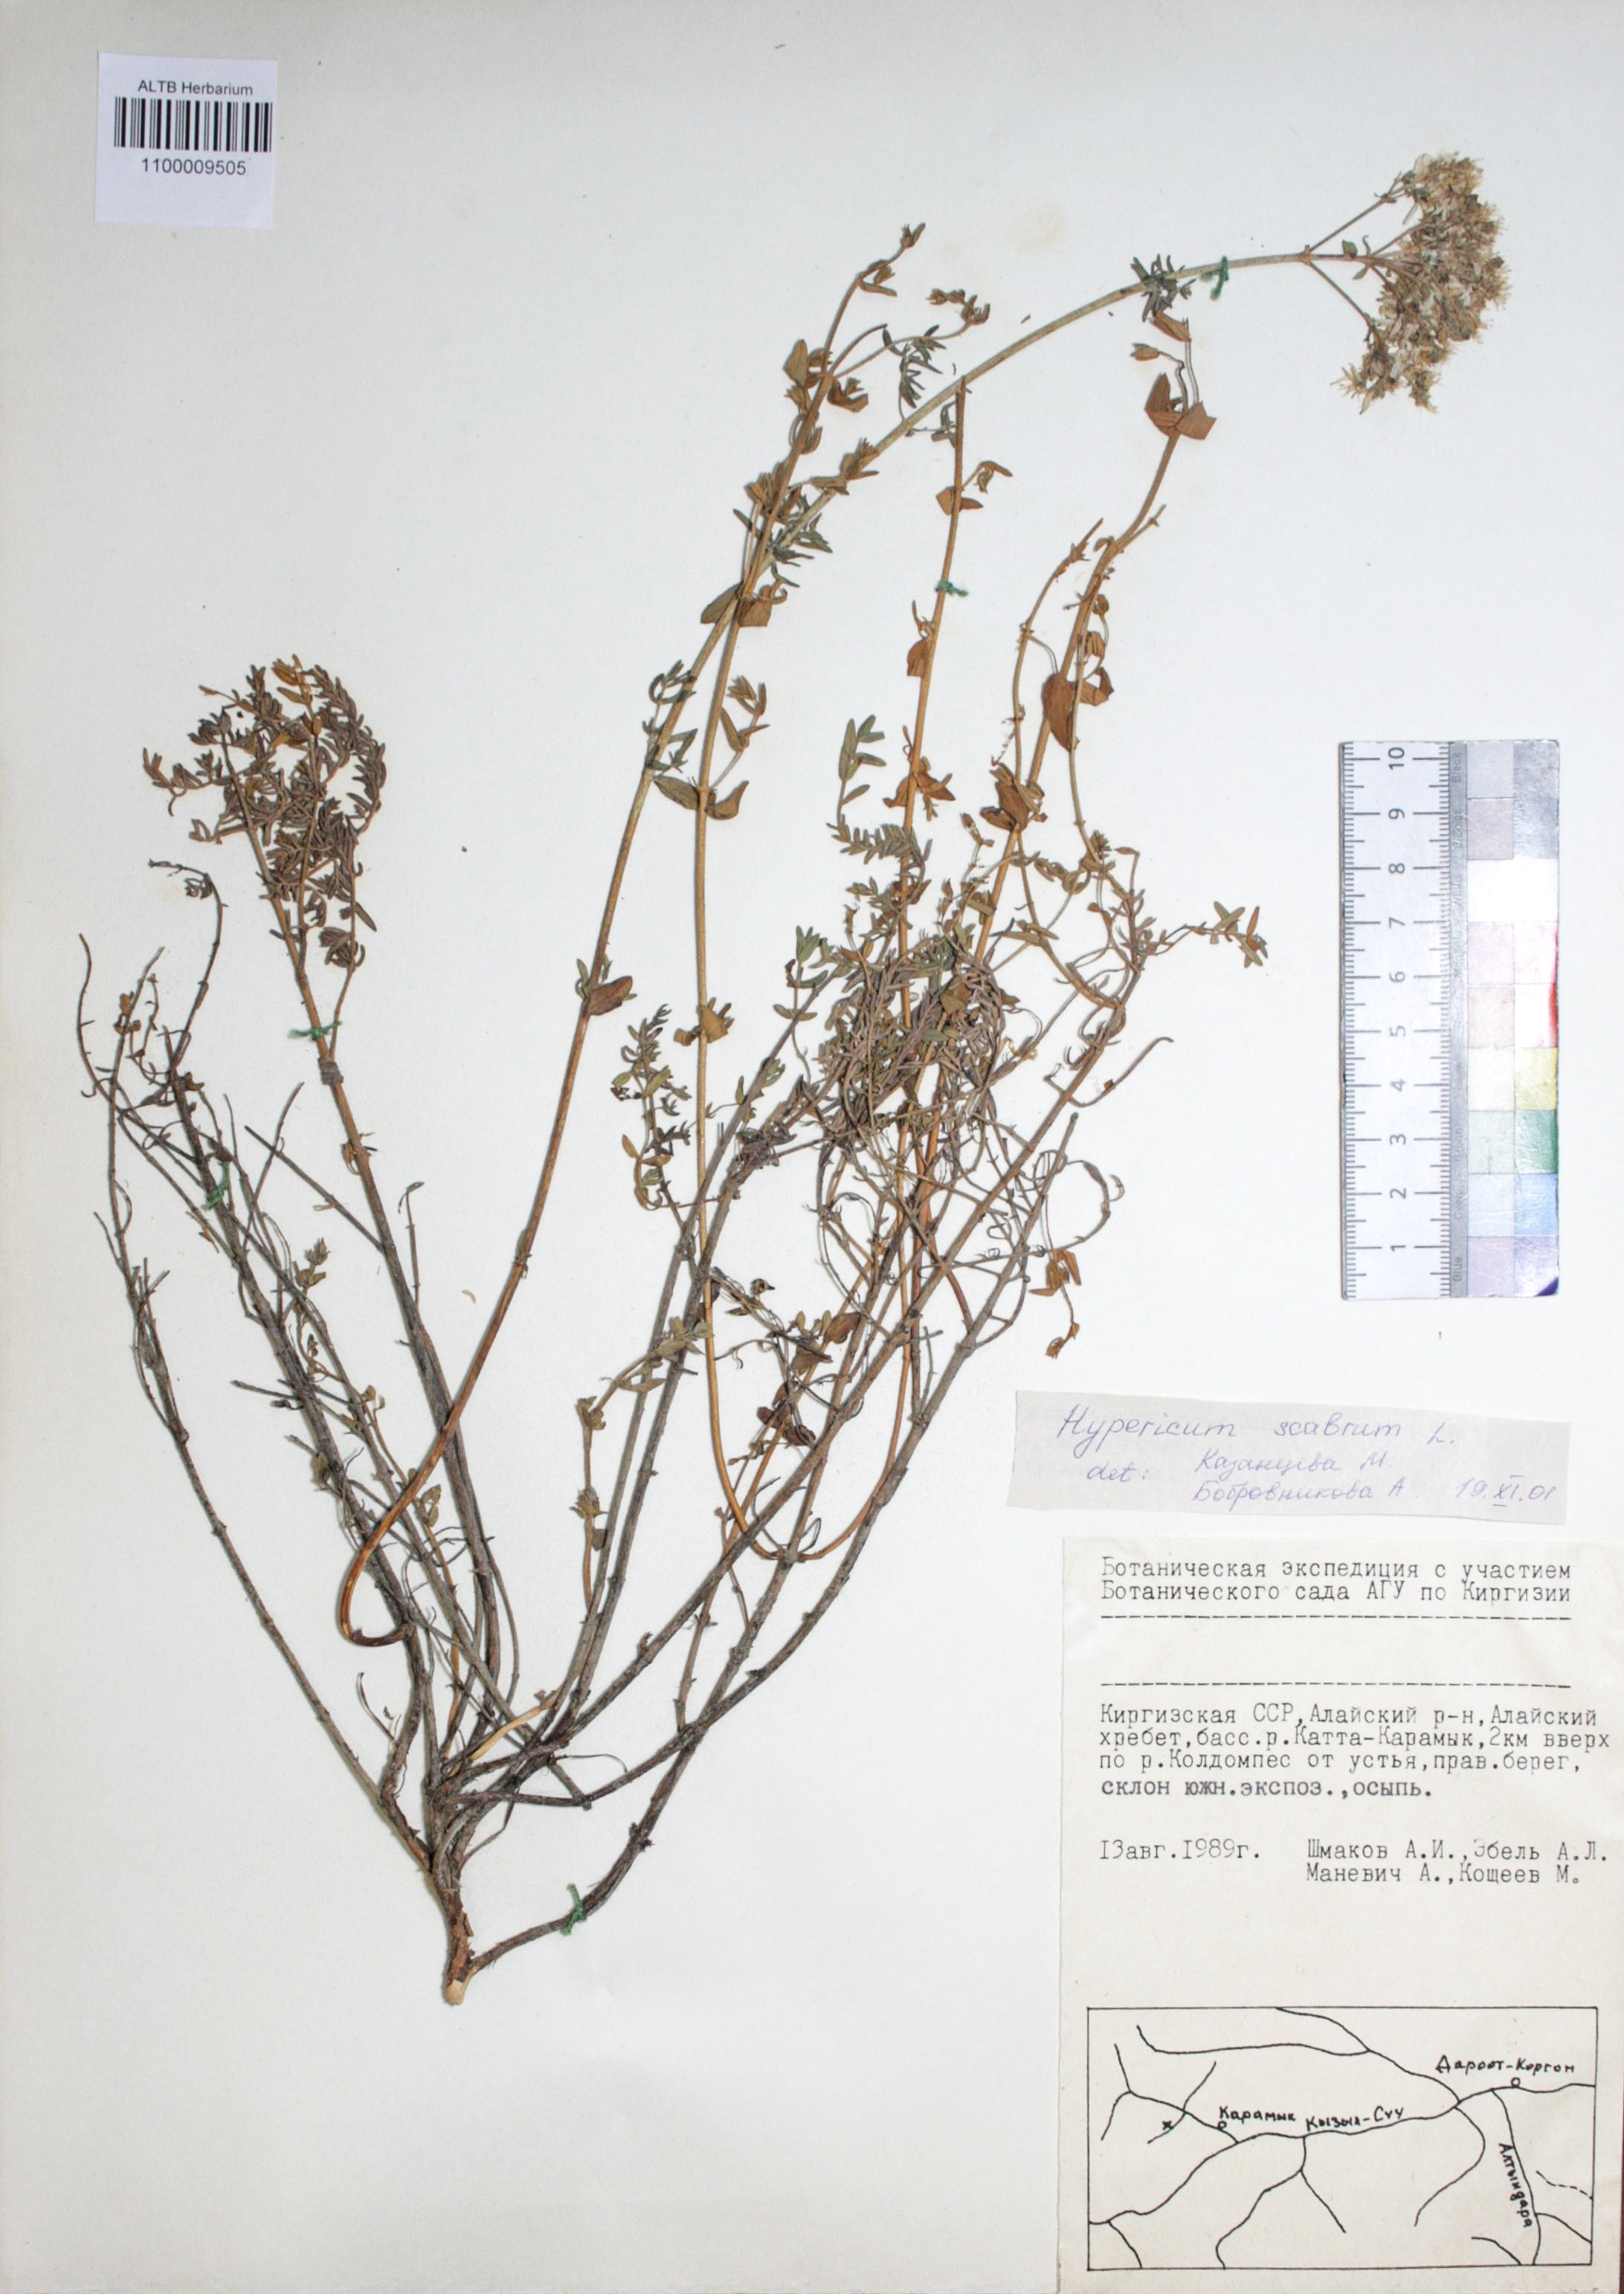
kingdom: Plantae
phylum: Tracheophyta
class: Magnoliopsida
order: Malpighiales
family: Hypericaceae
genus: Hypericum
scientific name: Hypericum scabrum
